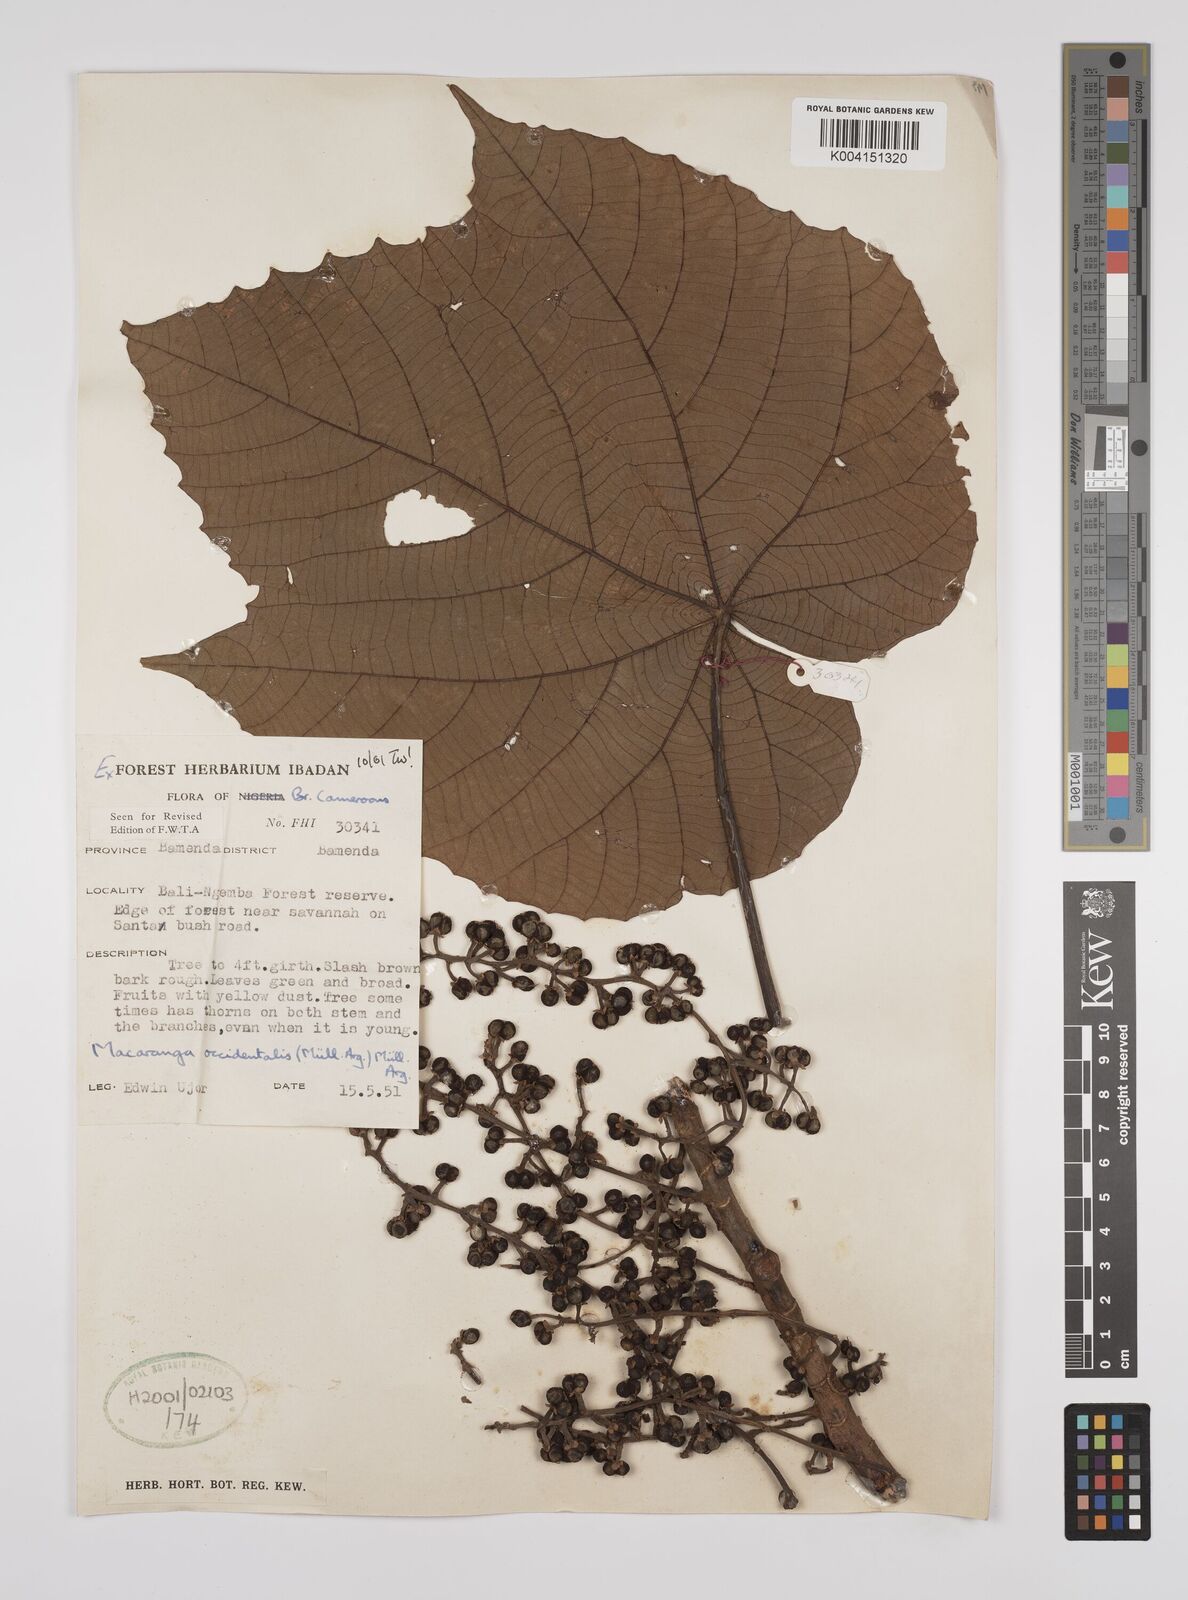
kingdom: Plantae
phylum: Tracheophyta
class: Magnoliopsida
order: Malpighiales
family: Euphorbiaceae
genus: Macaranga
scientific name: Macaranga occidentalis
